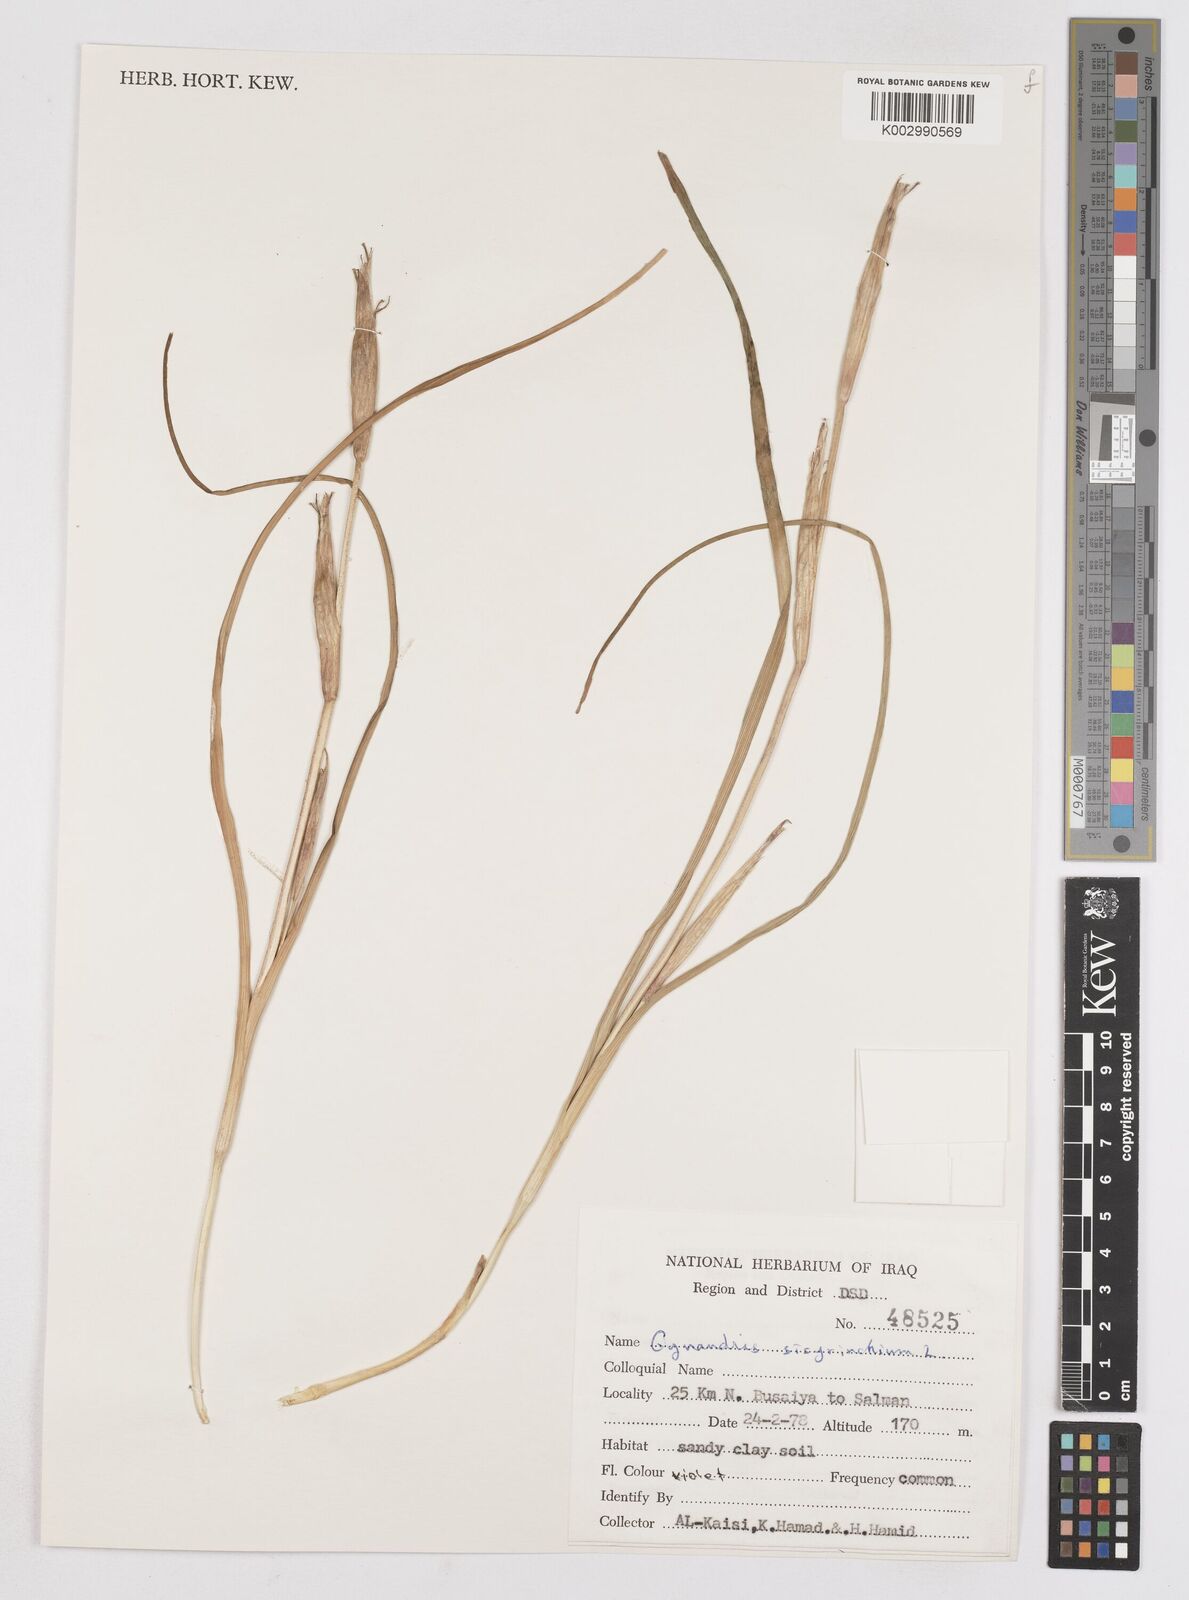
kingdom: Plantae
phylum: Tracheophyta
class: Liliopsida
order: Asparagales
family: Iridaceae
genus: Moraea
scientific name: Moraea sisyrinchium
